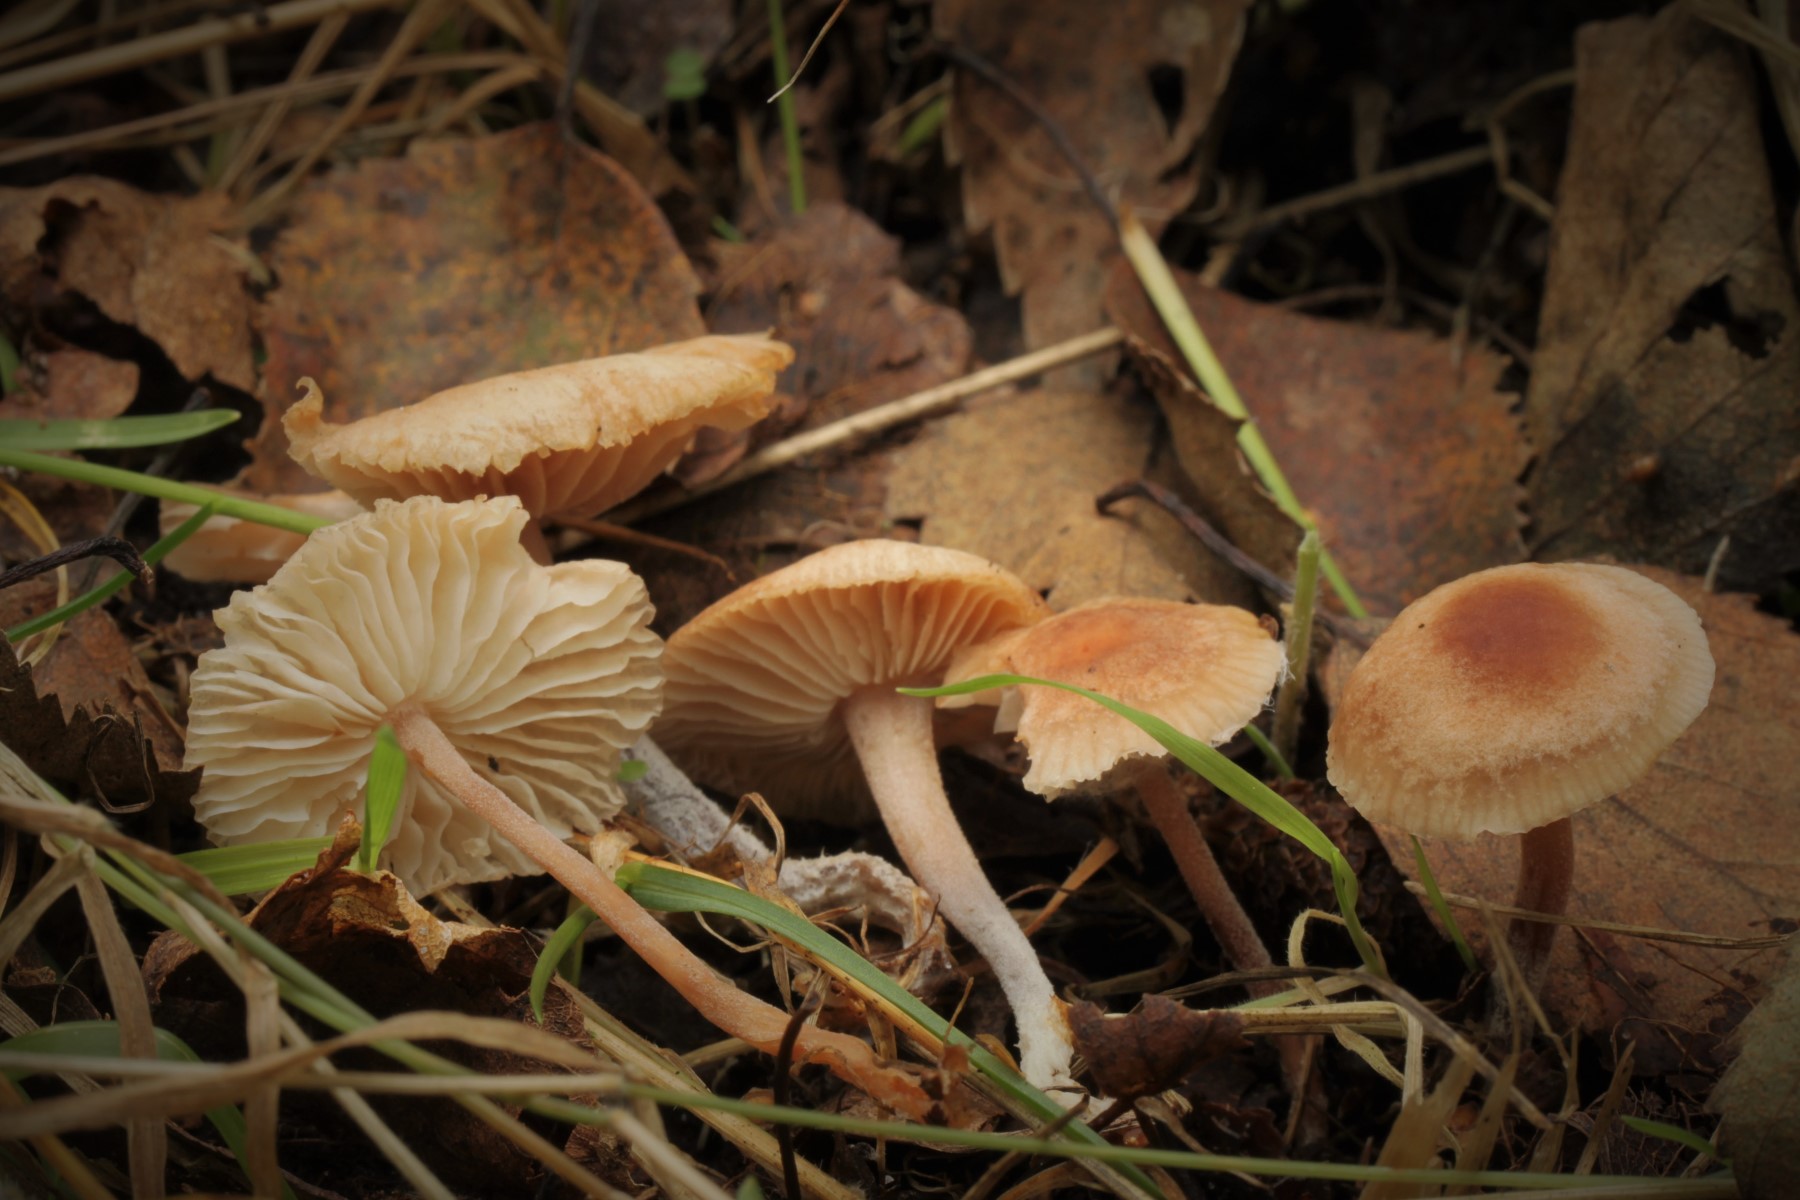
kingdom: Fungi
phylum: Basidiomycota
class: Agaricomycetes
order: Agaricales
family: Omphalotaceae
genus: Gymnopus
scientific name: Gymnopus impudicus
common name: fesen fladhat
